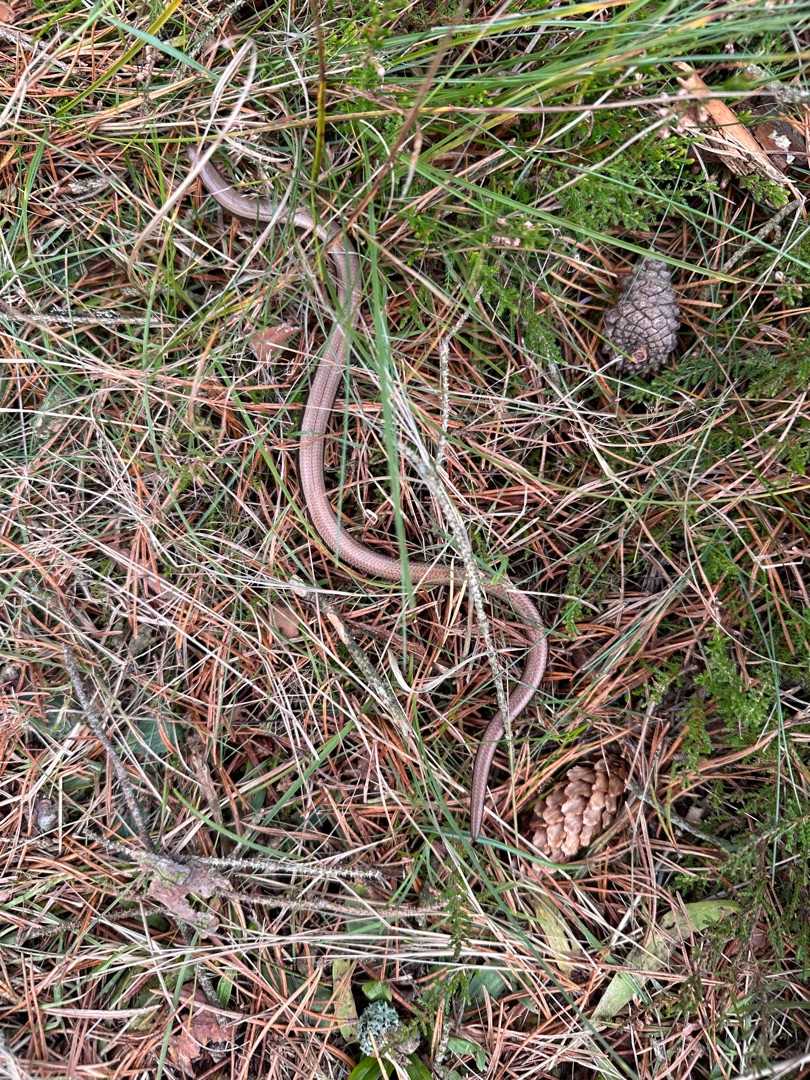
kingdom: Animalia
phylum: Chordata
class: Squamata
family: Anguidae
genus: Anguis
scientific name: Anguis fragilis
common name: Stålorm
